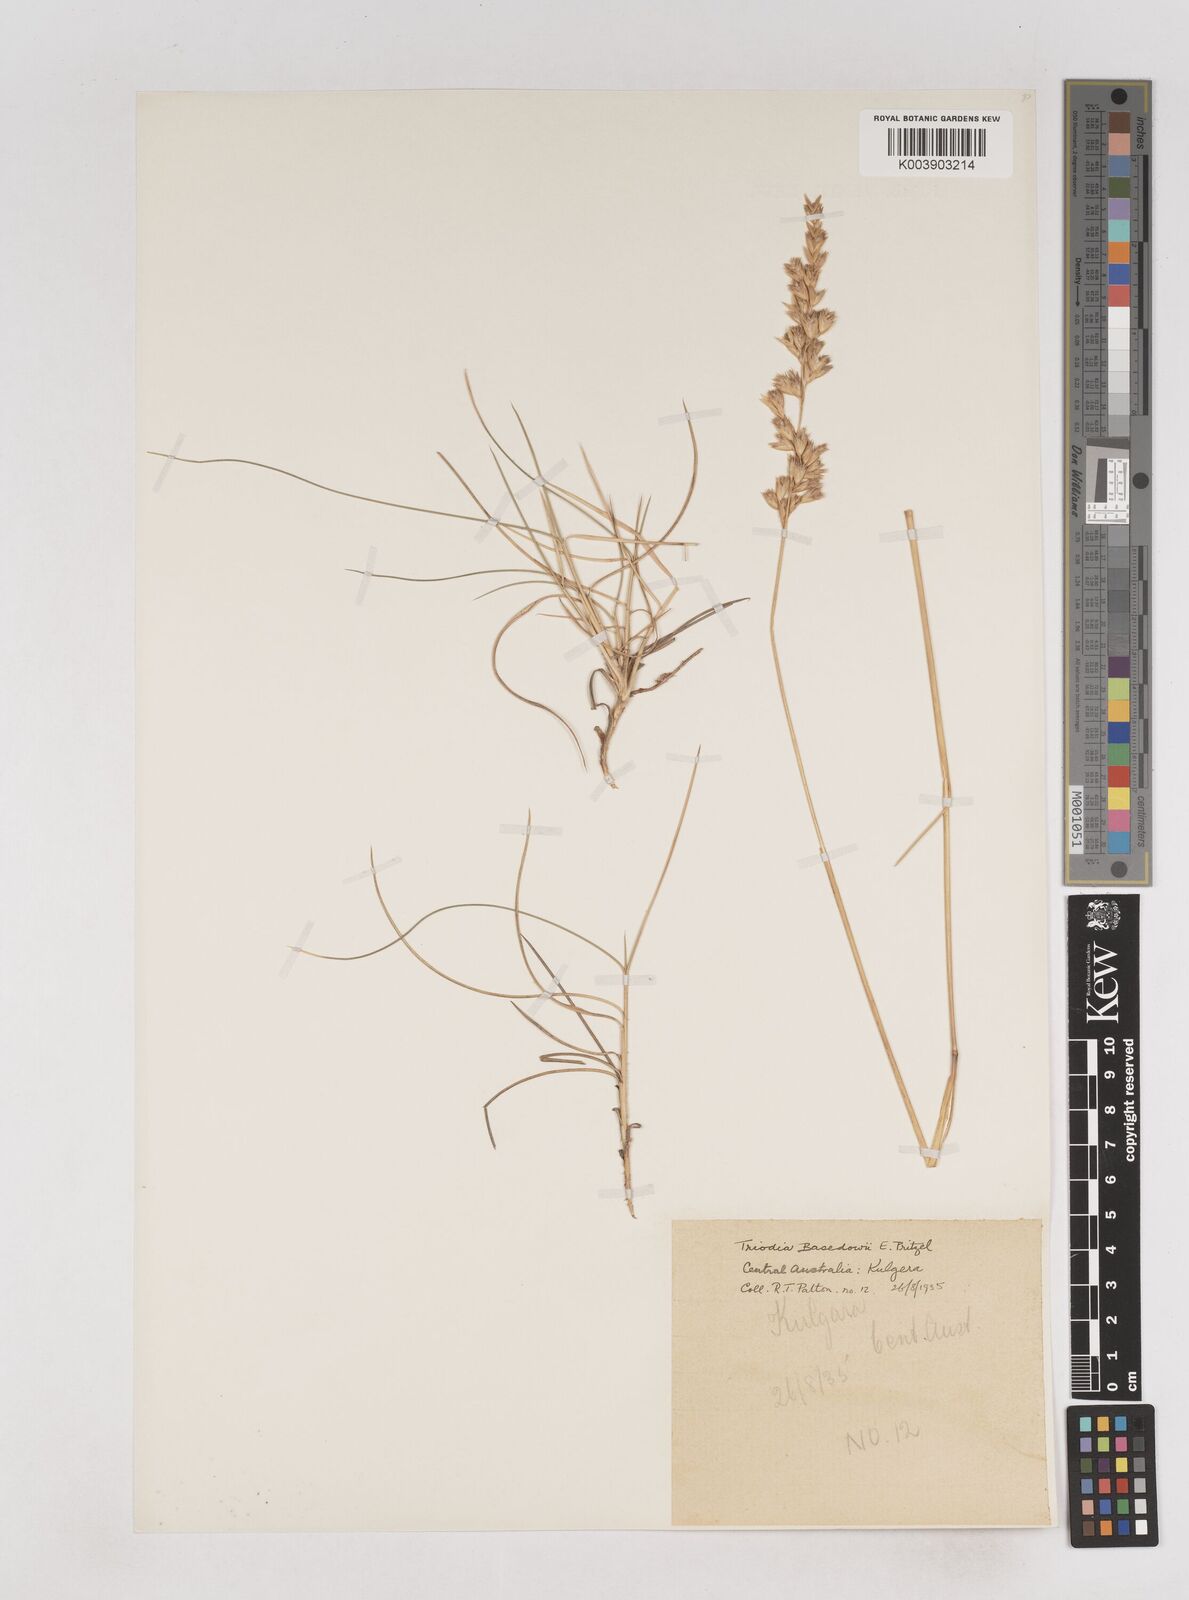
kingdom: Plantae
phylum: Tracheophyta
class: Liliopsida
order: Poales
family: Poaceae
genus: Triodia
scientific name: Triodia basedowii
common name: Hard spinifex
